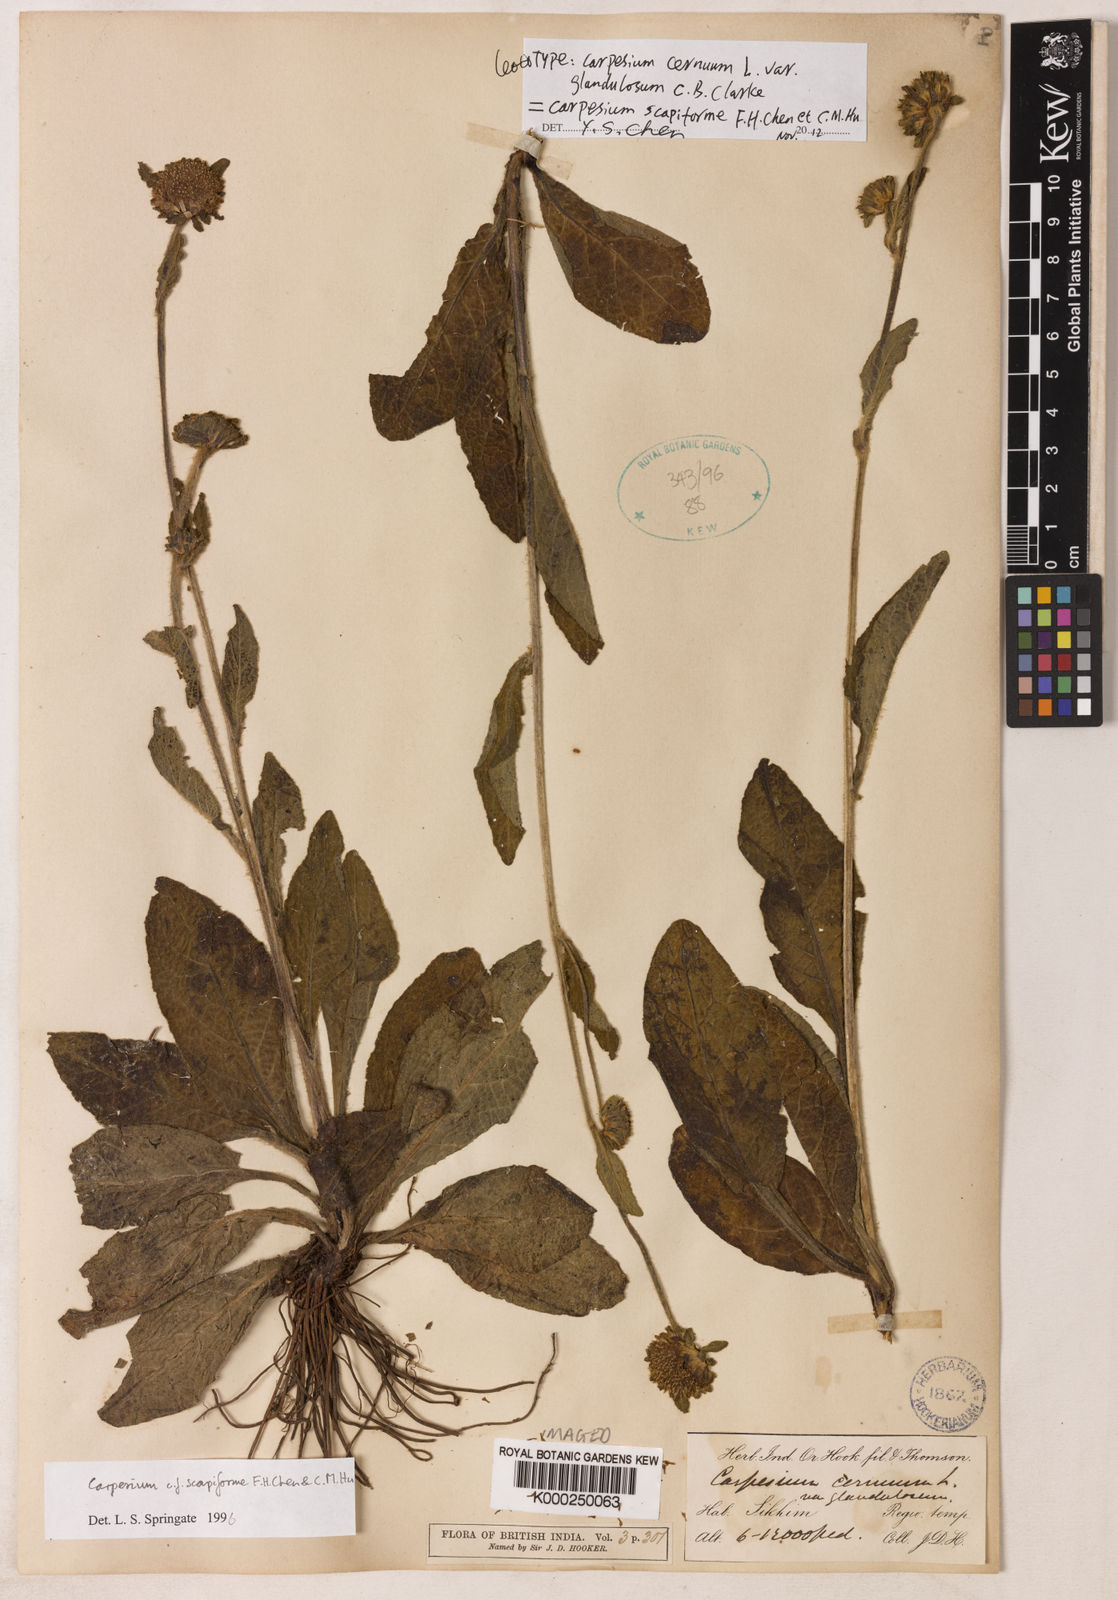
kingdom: Plantae
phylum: Tracheophyta
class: Magnoliopsida
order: Asterales
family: Asteraceae
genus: Carpesium
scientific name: Carpesium cernuum
